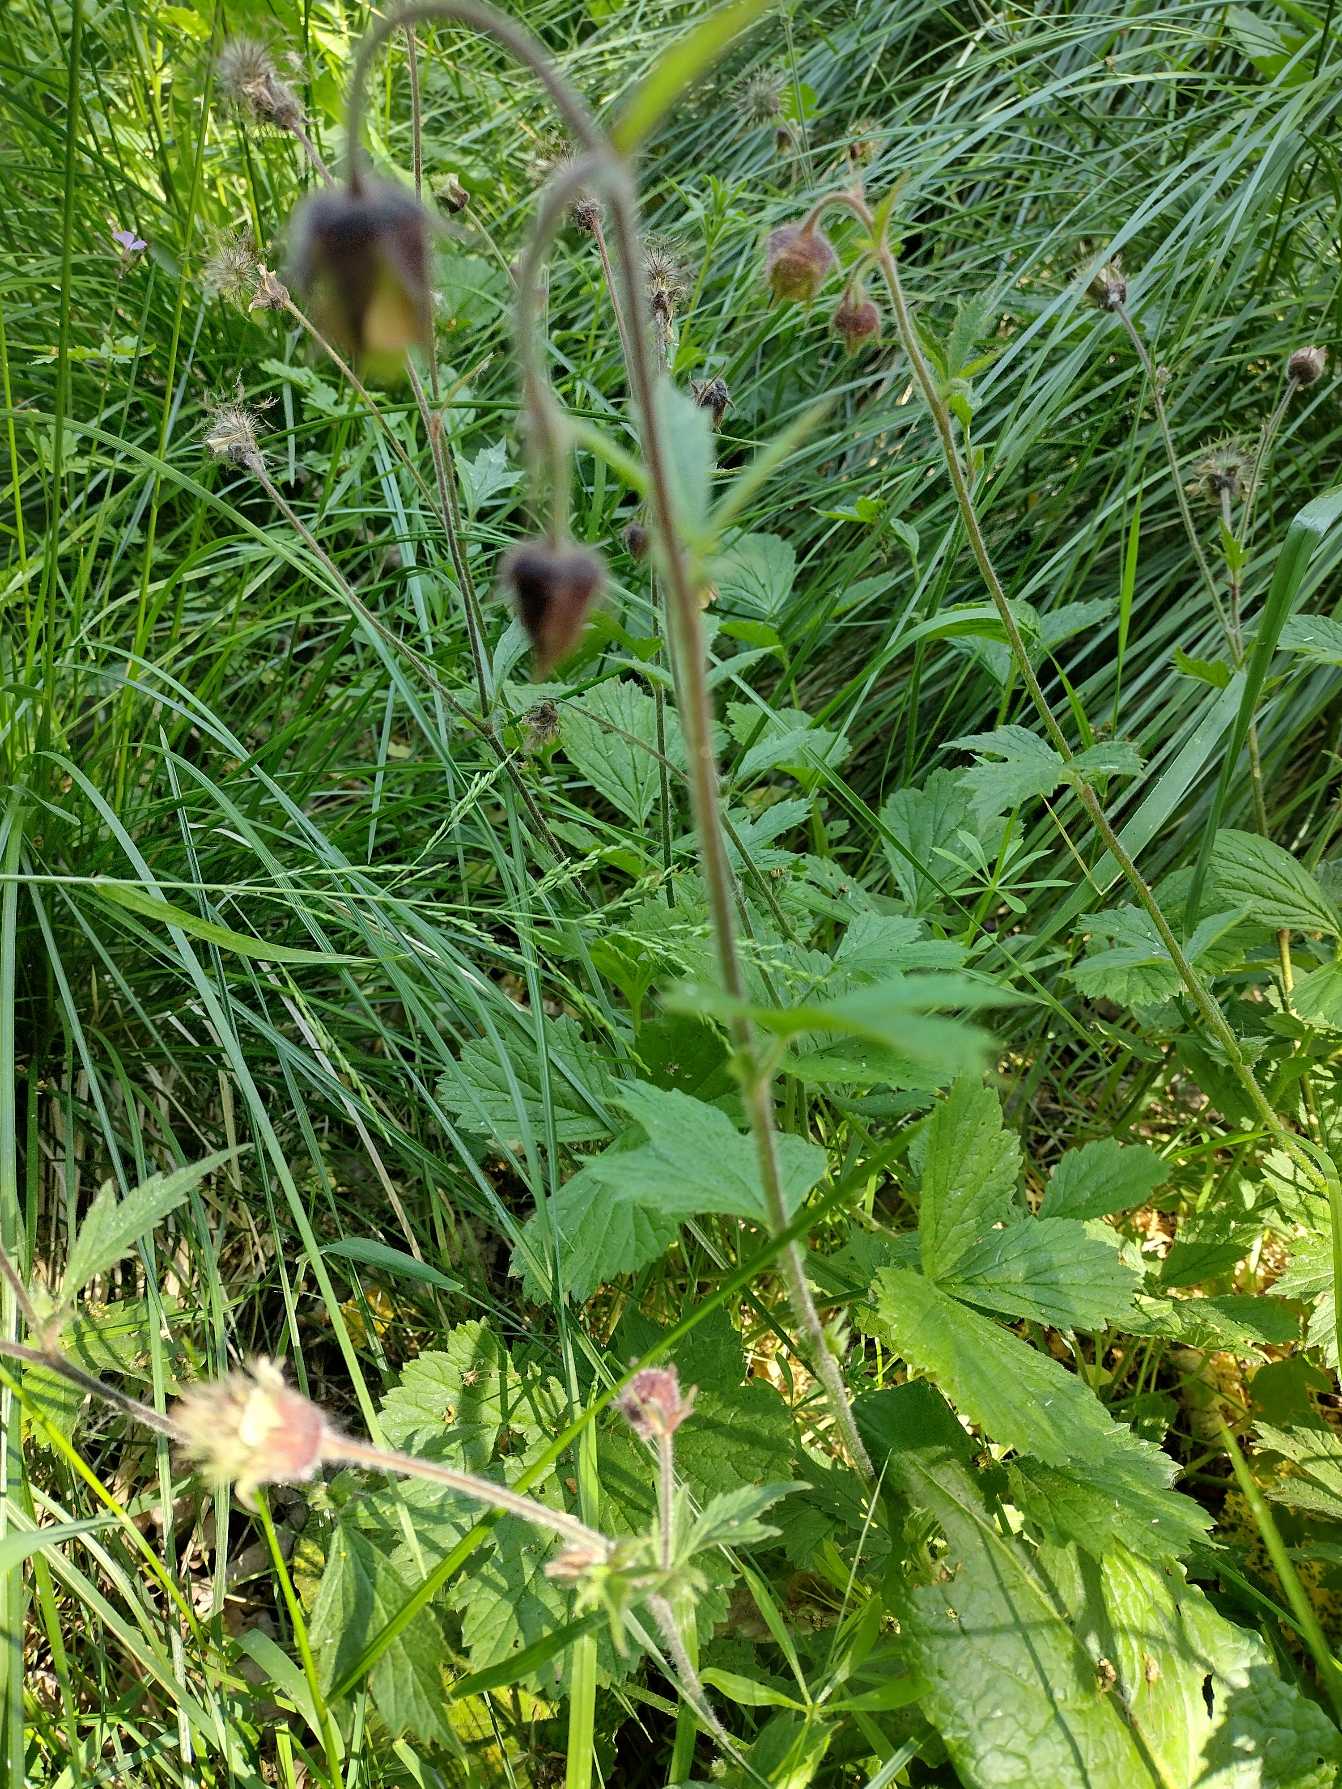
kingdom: Plantae
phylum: Tracheophyta
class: Magnoliopsida
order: Rosales
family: Rosaceae
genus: Geum
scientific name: Geum rivale
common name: Eng-nellikerod
